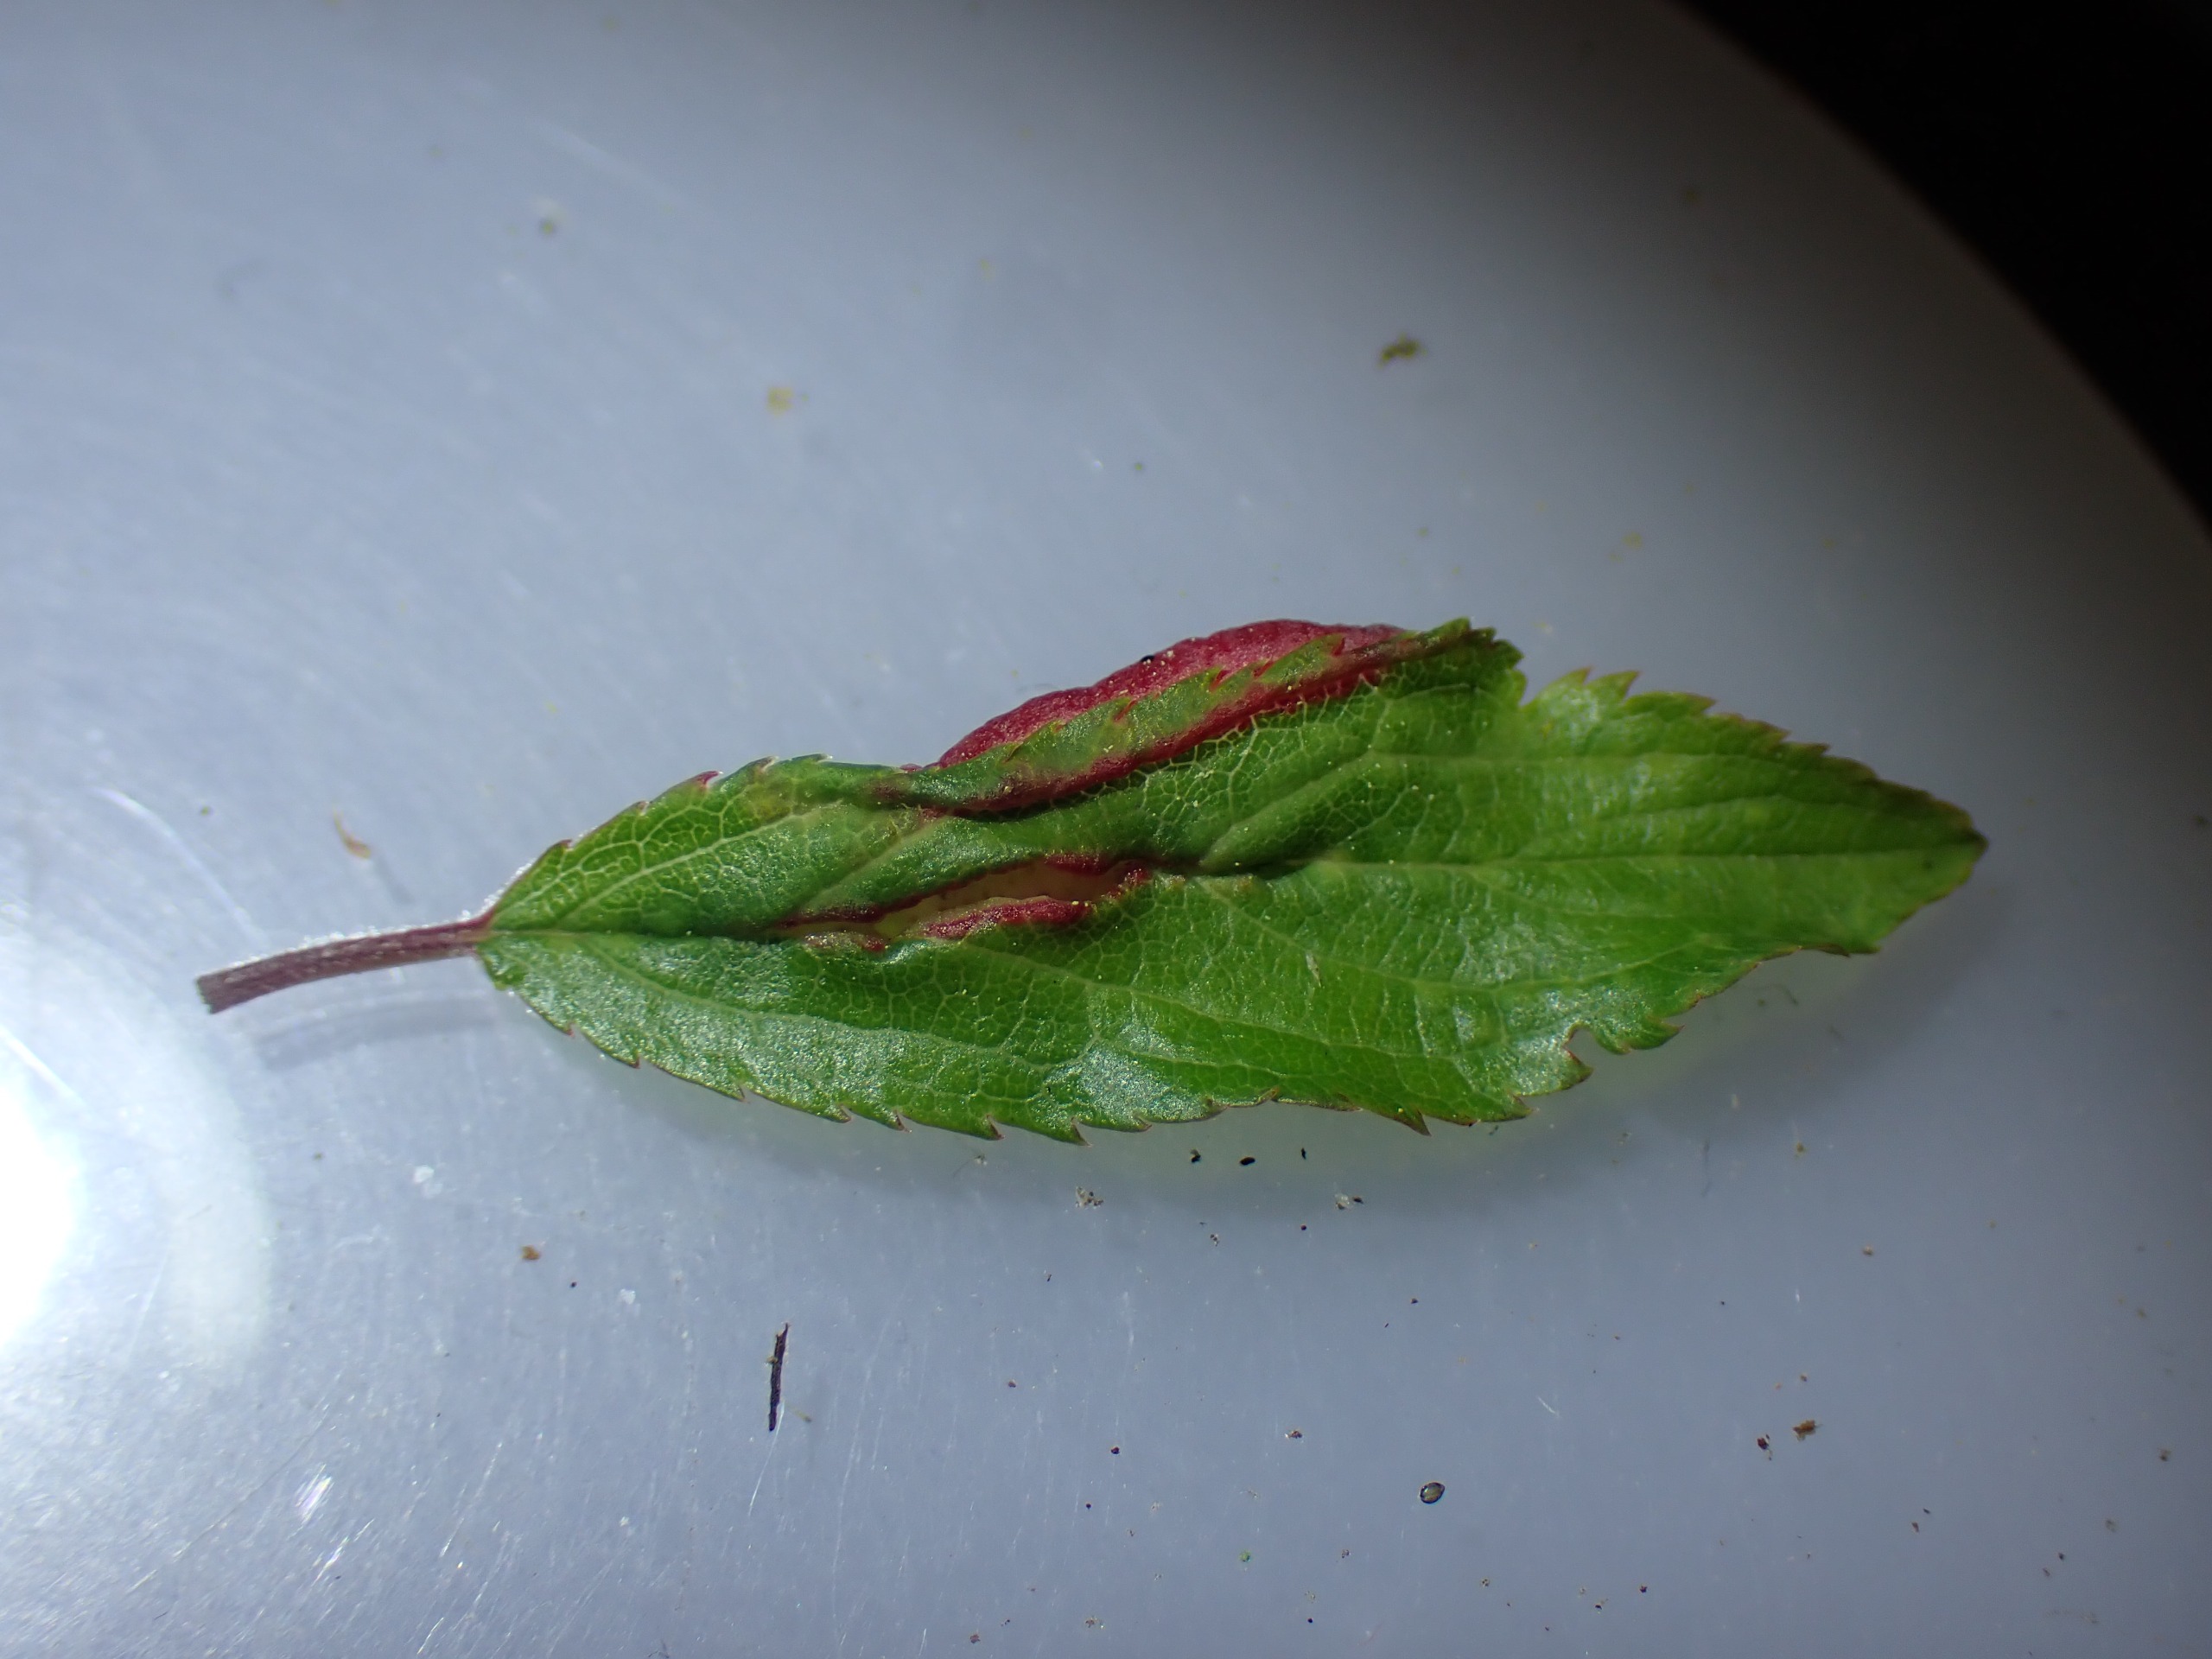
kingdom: Animalia
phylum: Arthropoda
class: Insecta
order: Diptera
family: Cecidomyiidae
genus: Putoniella
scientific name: Putoniella pruni
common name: Slåenvulstgalmyg
